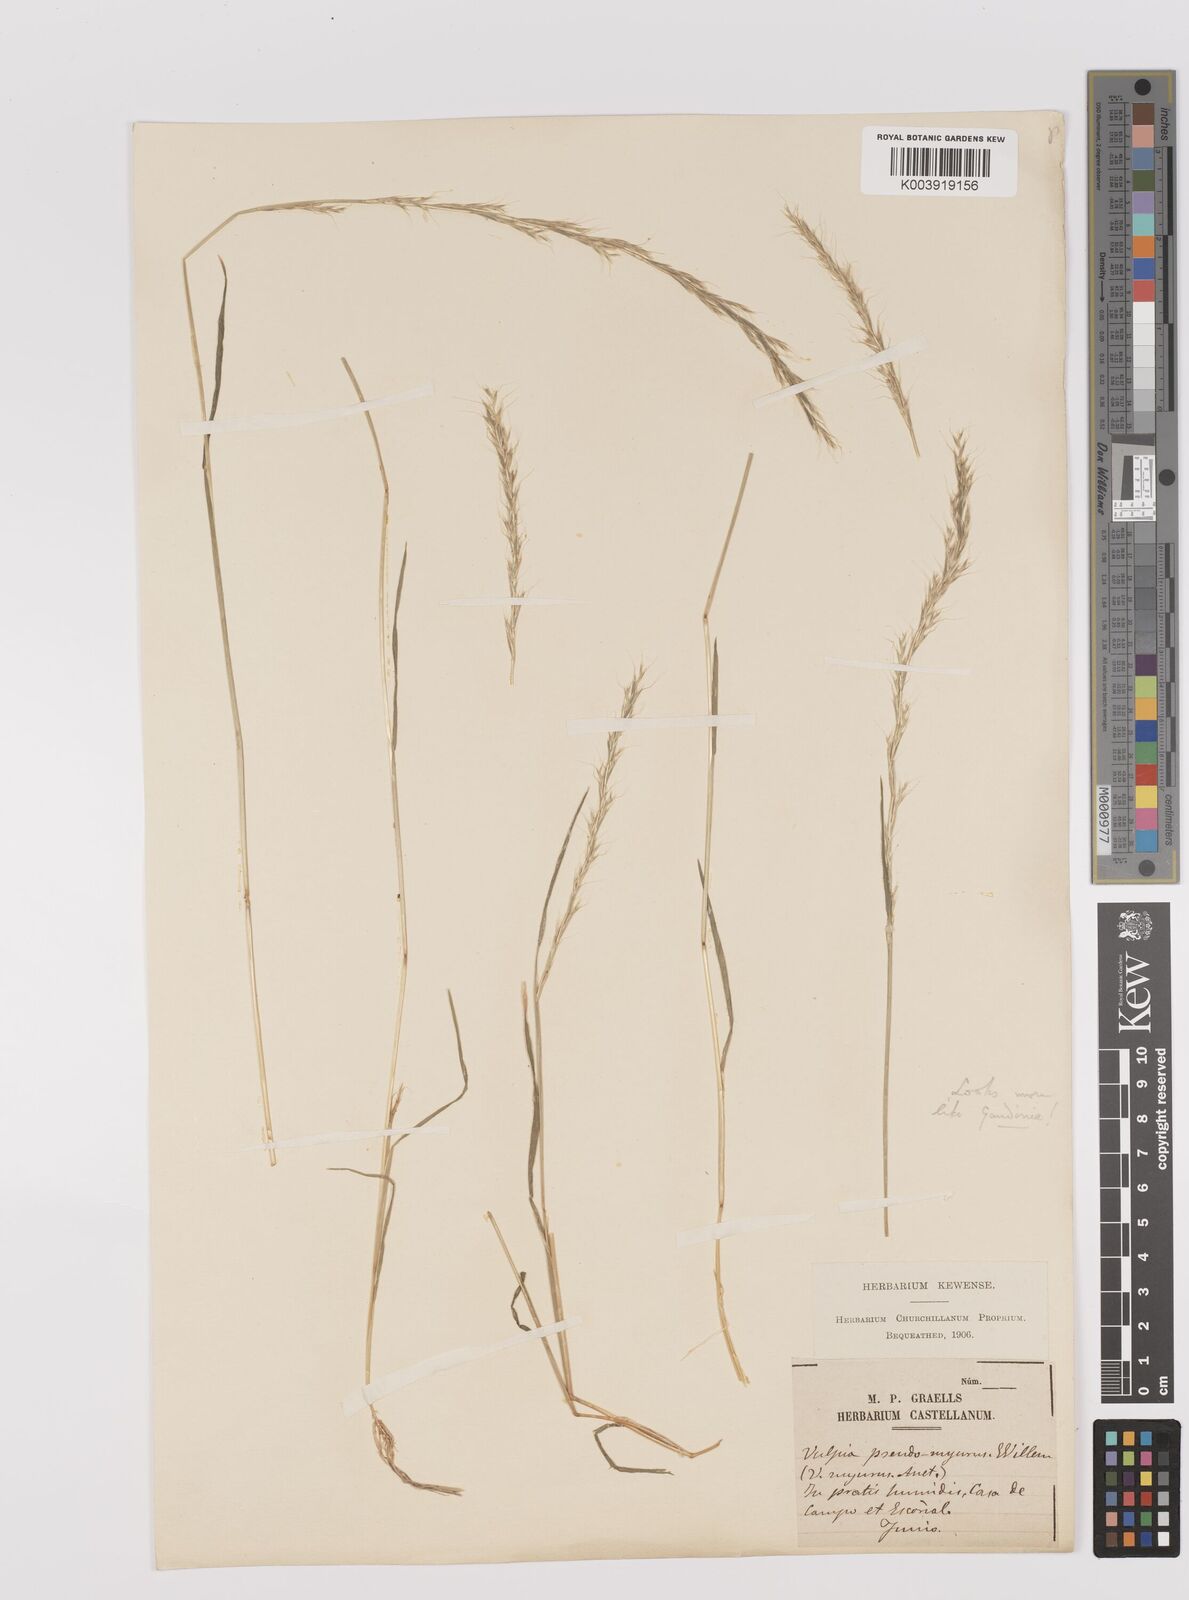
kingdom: Plantae
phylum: Tracheophyta
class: Liliopsida
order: Poales
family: Poaceae
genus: Gaudinia
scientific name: Gaudinia fragilis
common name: French oat-grass
